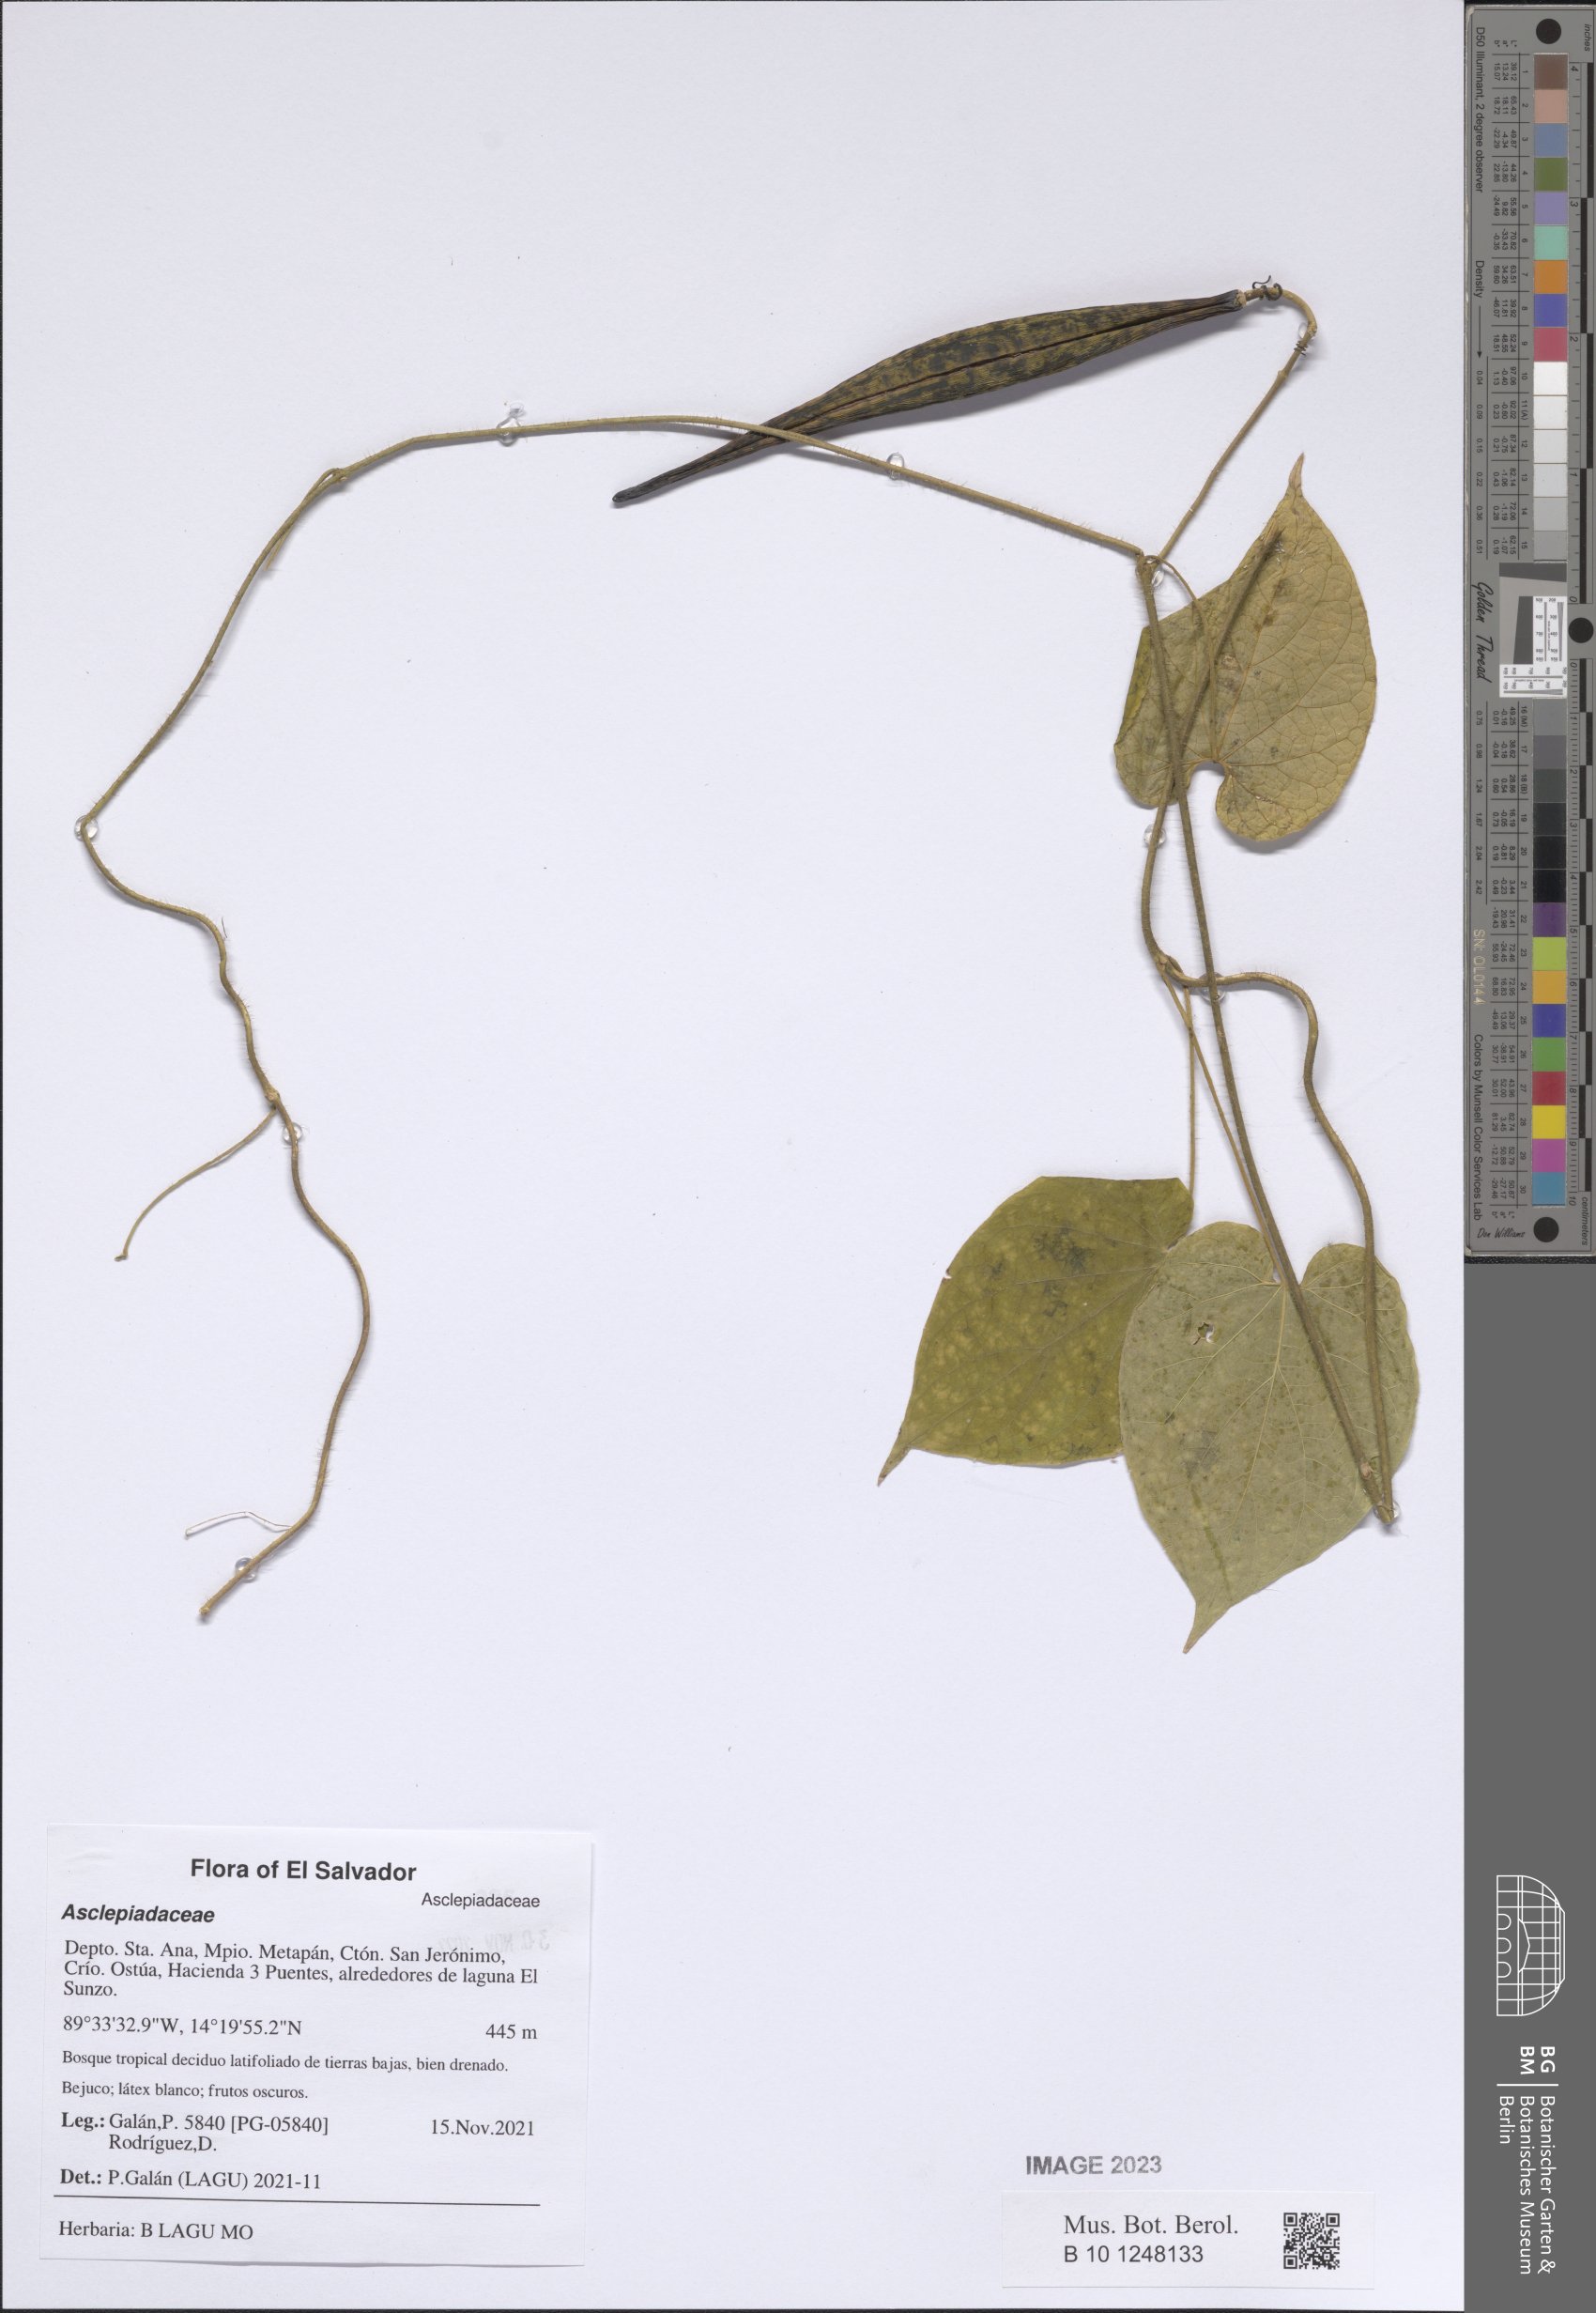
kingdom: Plantae
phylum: Tracheophyta
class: Magnoliopsida
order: Gentianales
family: Asclepiadaceae
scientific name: Asclepiadaceae
